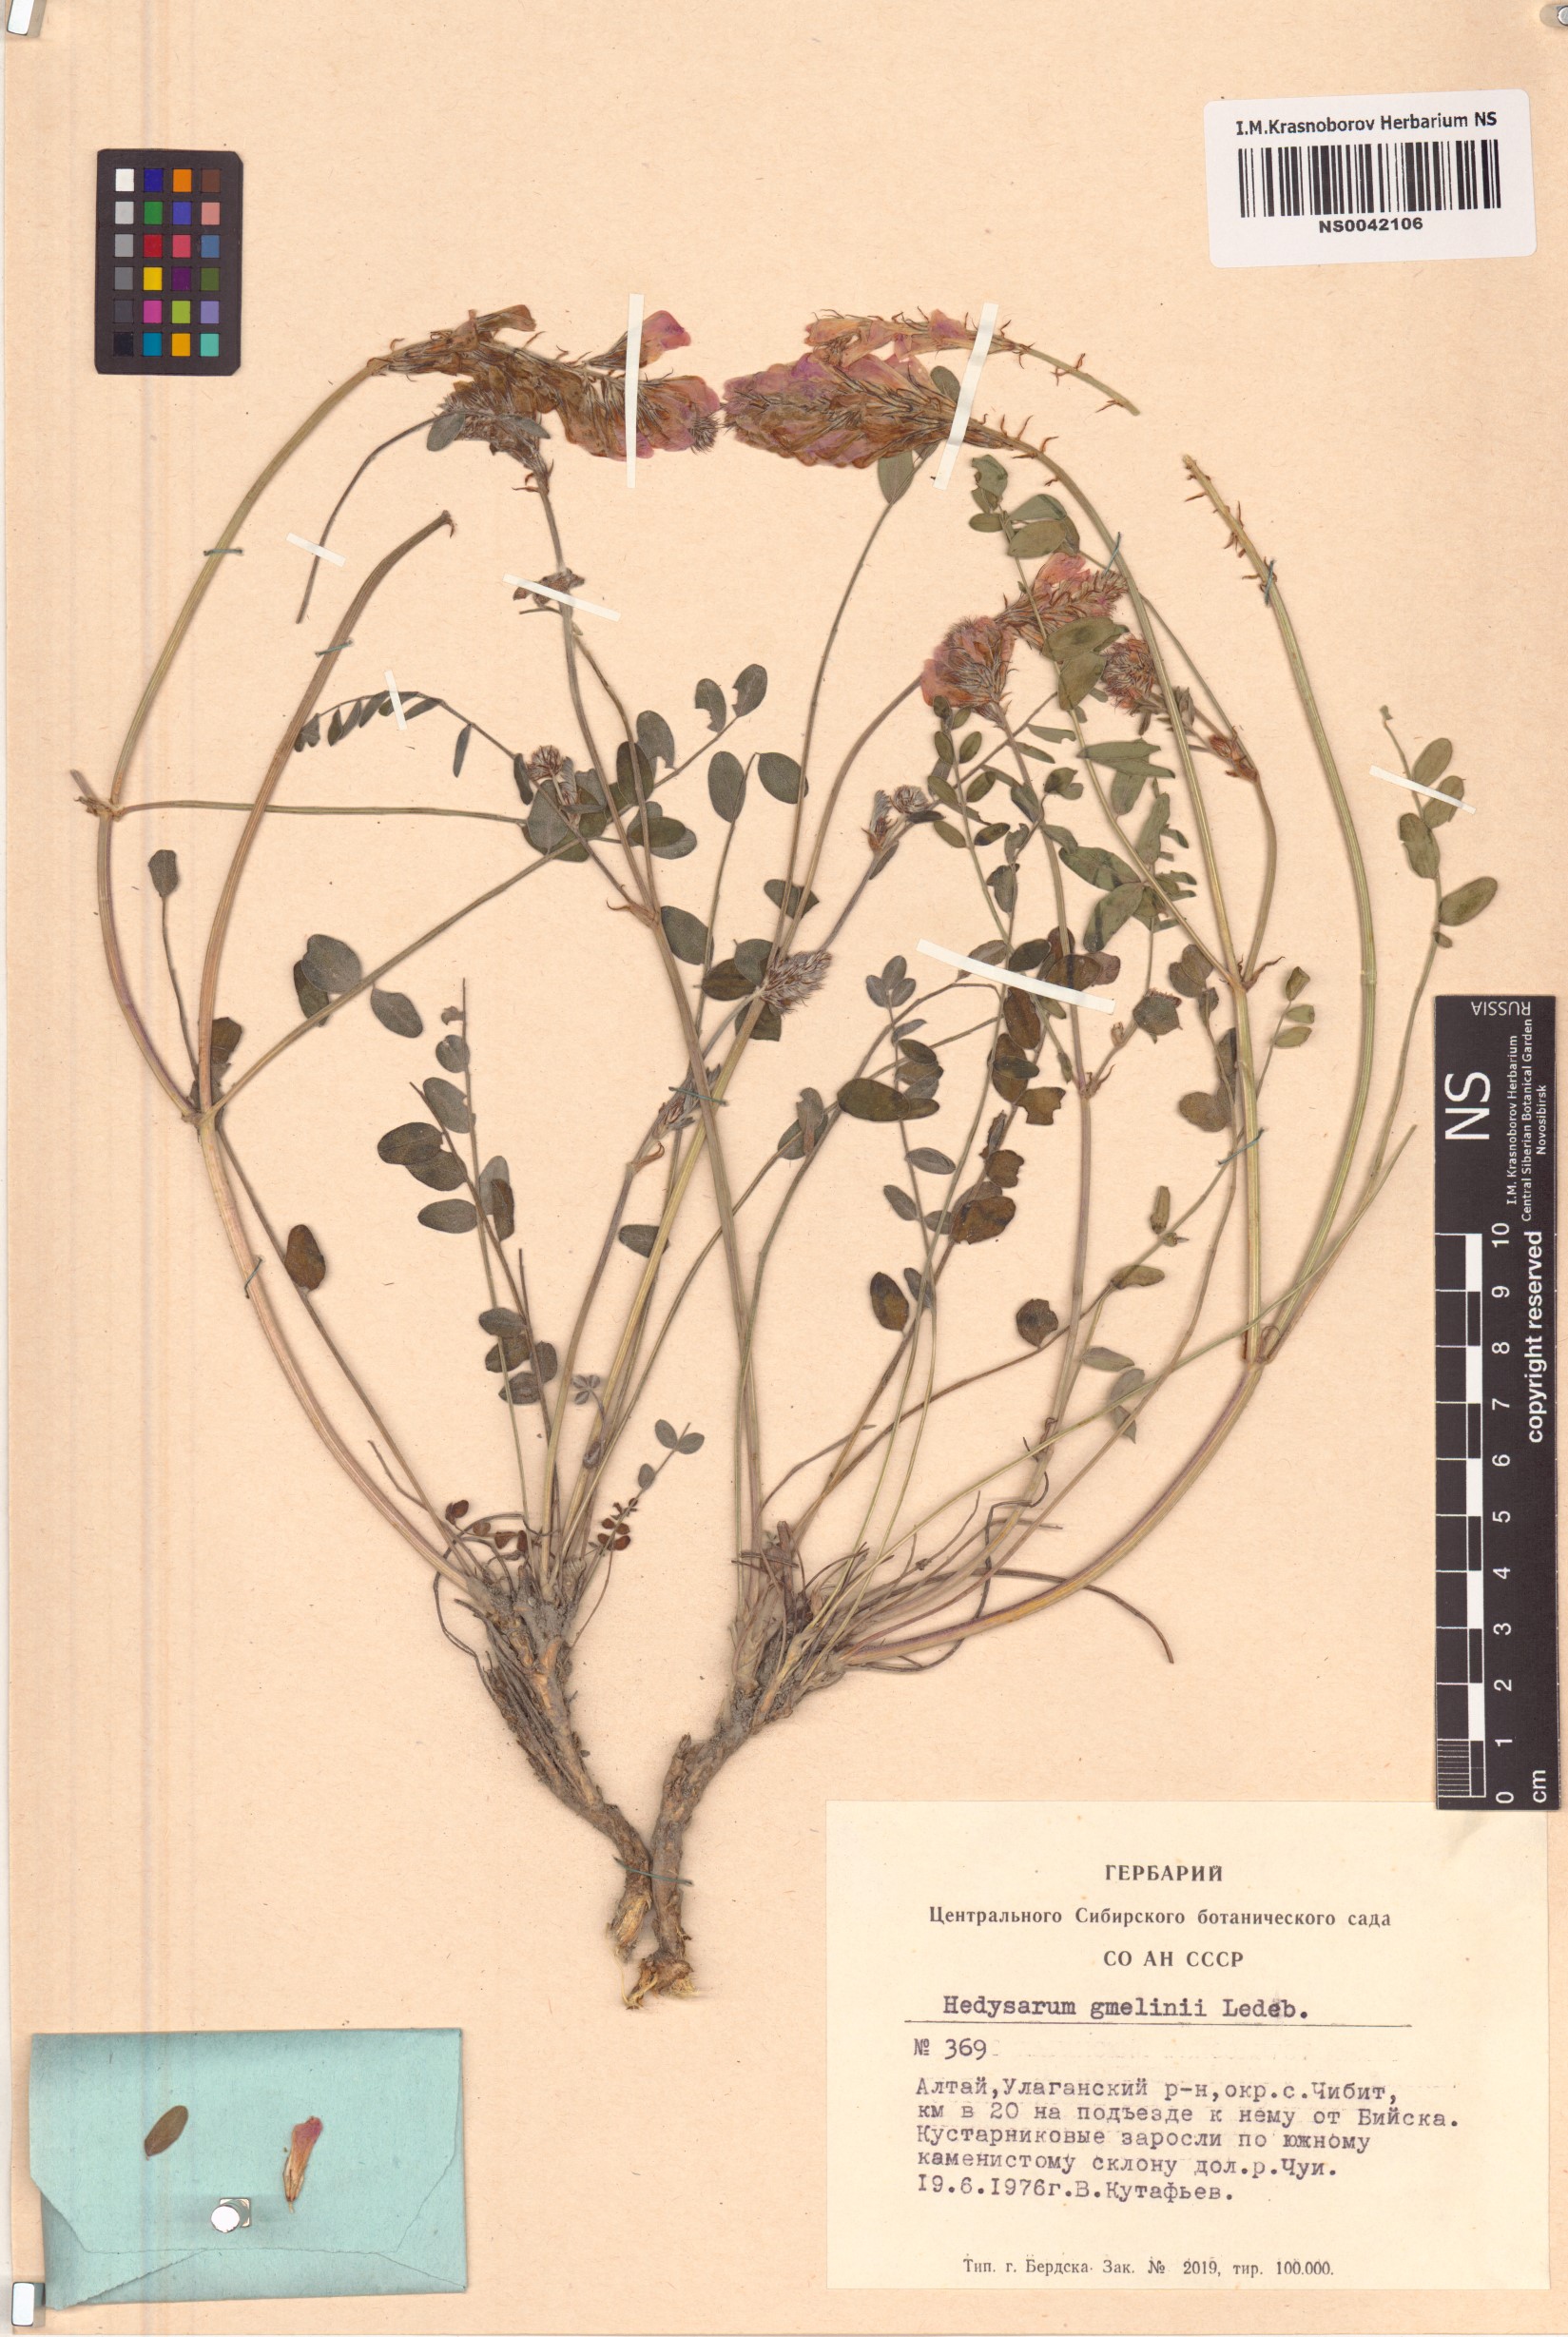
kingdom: Plantae
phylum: Tracheophyta
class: Magnoliopsida
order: Fabales
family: Fabaceae
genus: Hedysarum
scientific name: Hedysarum gmelinii
